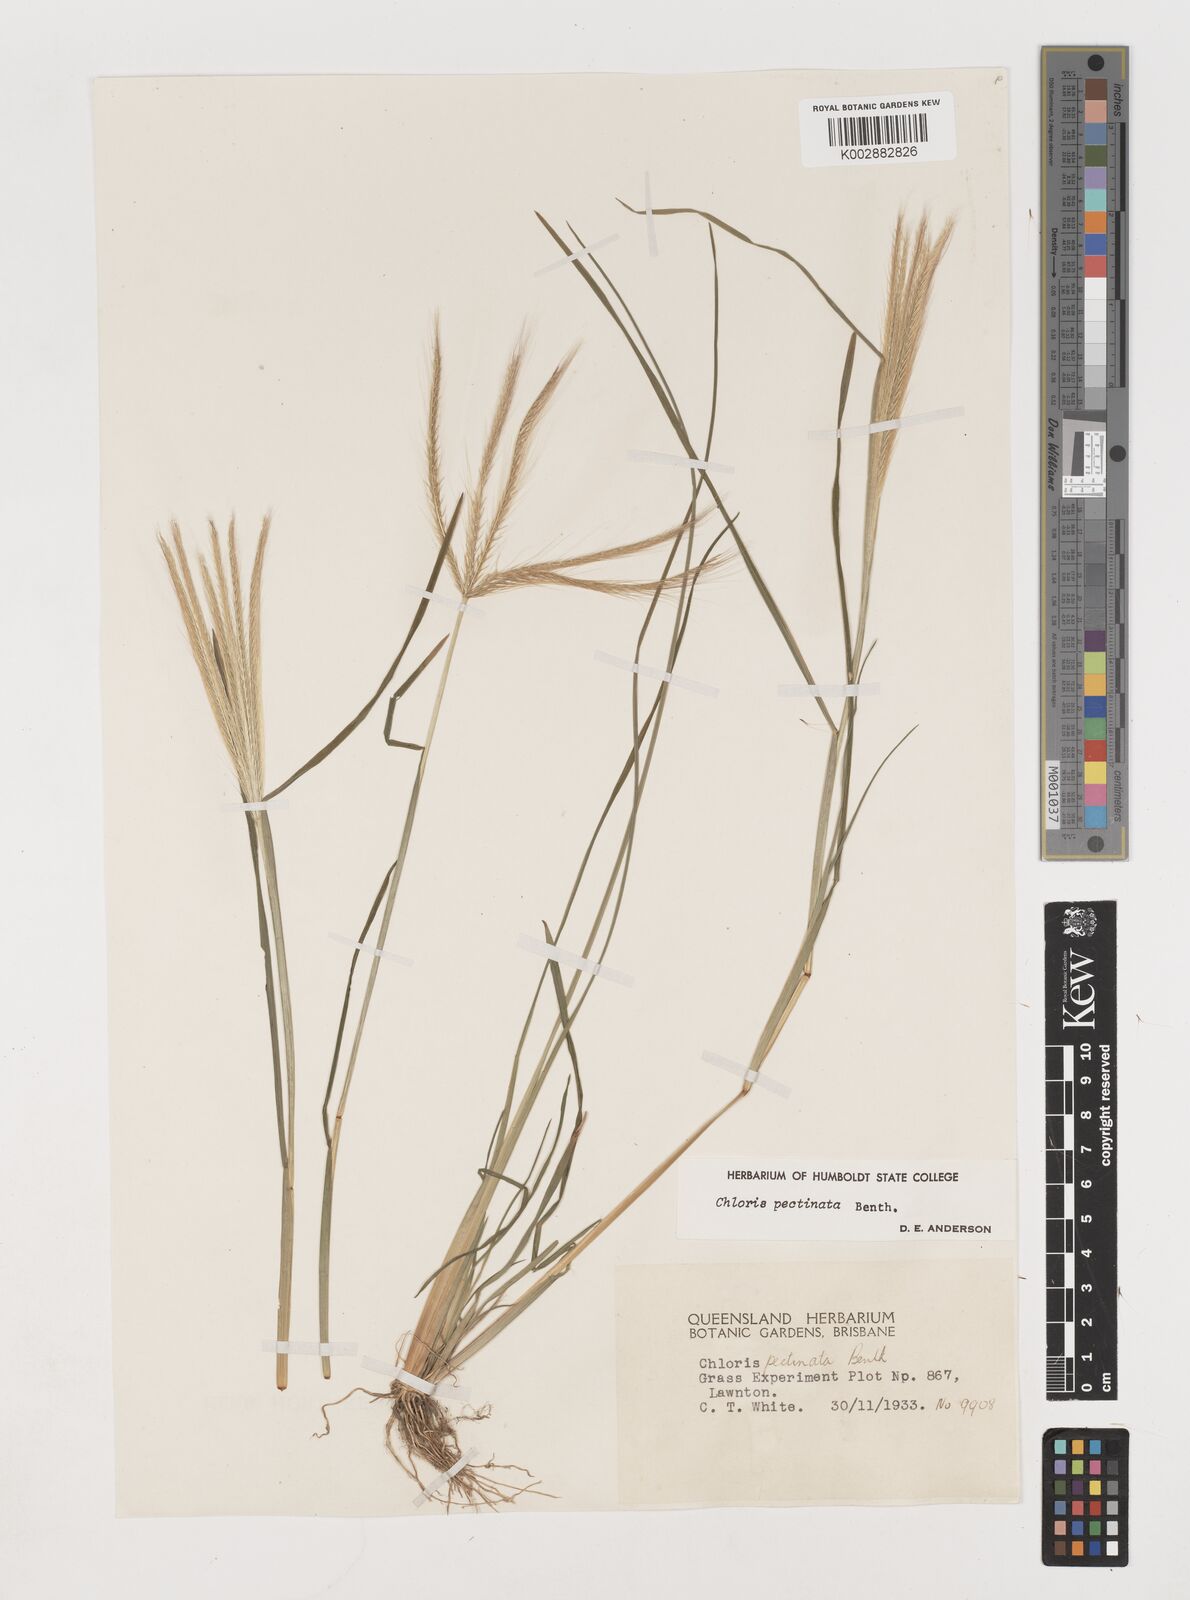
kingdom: Plantae
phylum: Tracheophyta
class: Liliopsida
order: Poales
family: Poaceae
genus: Chloris
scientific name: Chloris pectinata
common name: Comb windmill grass
